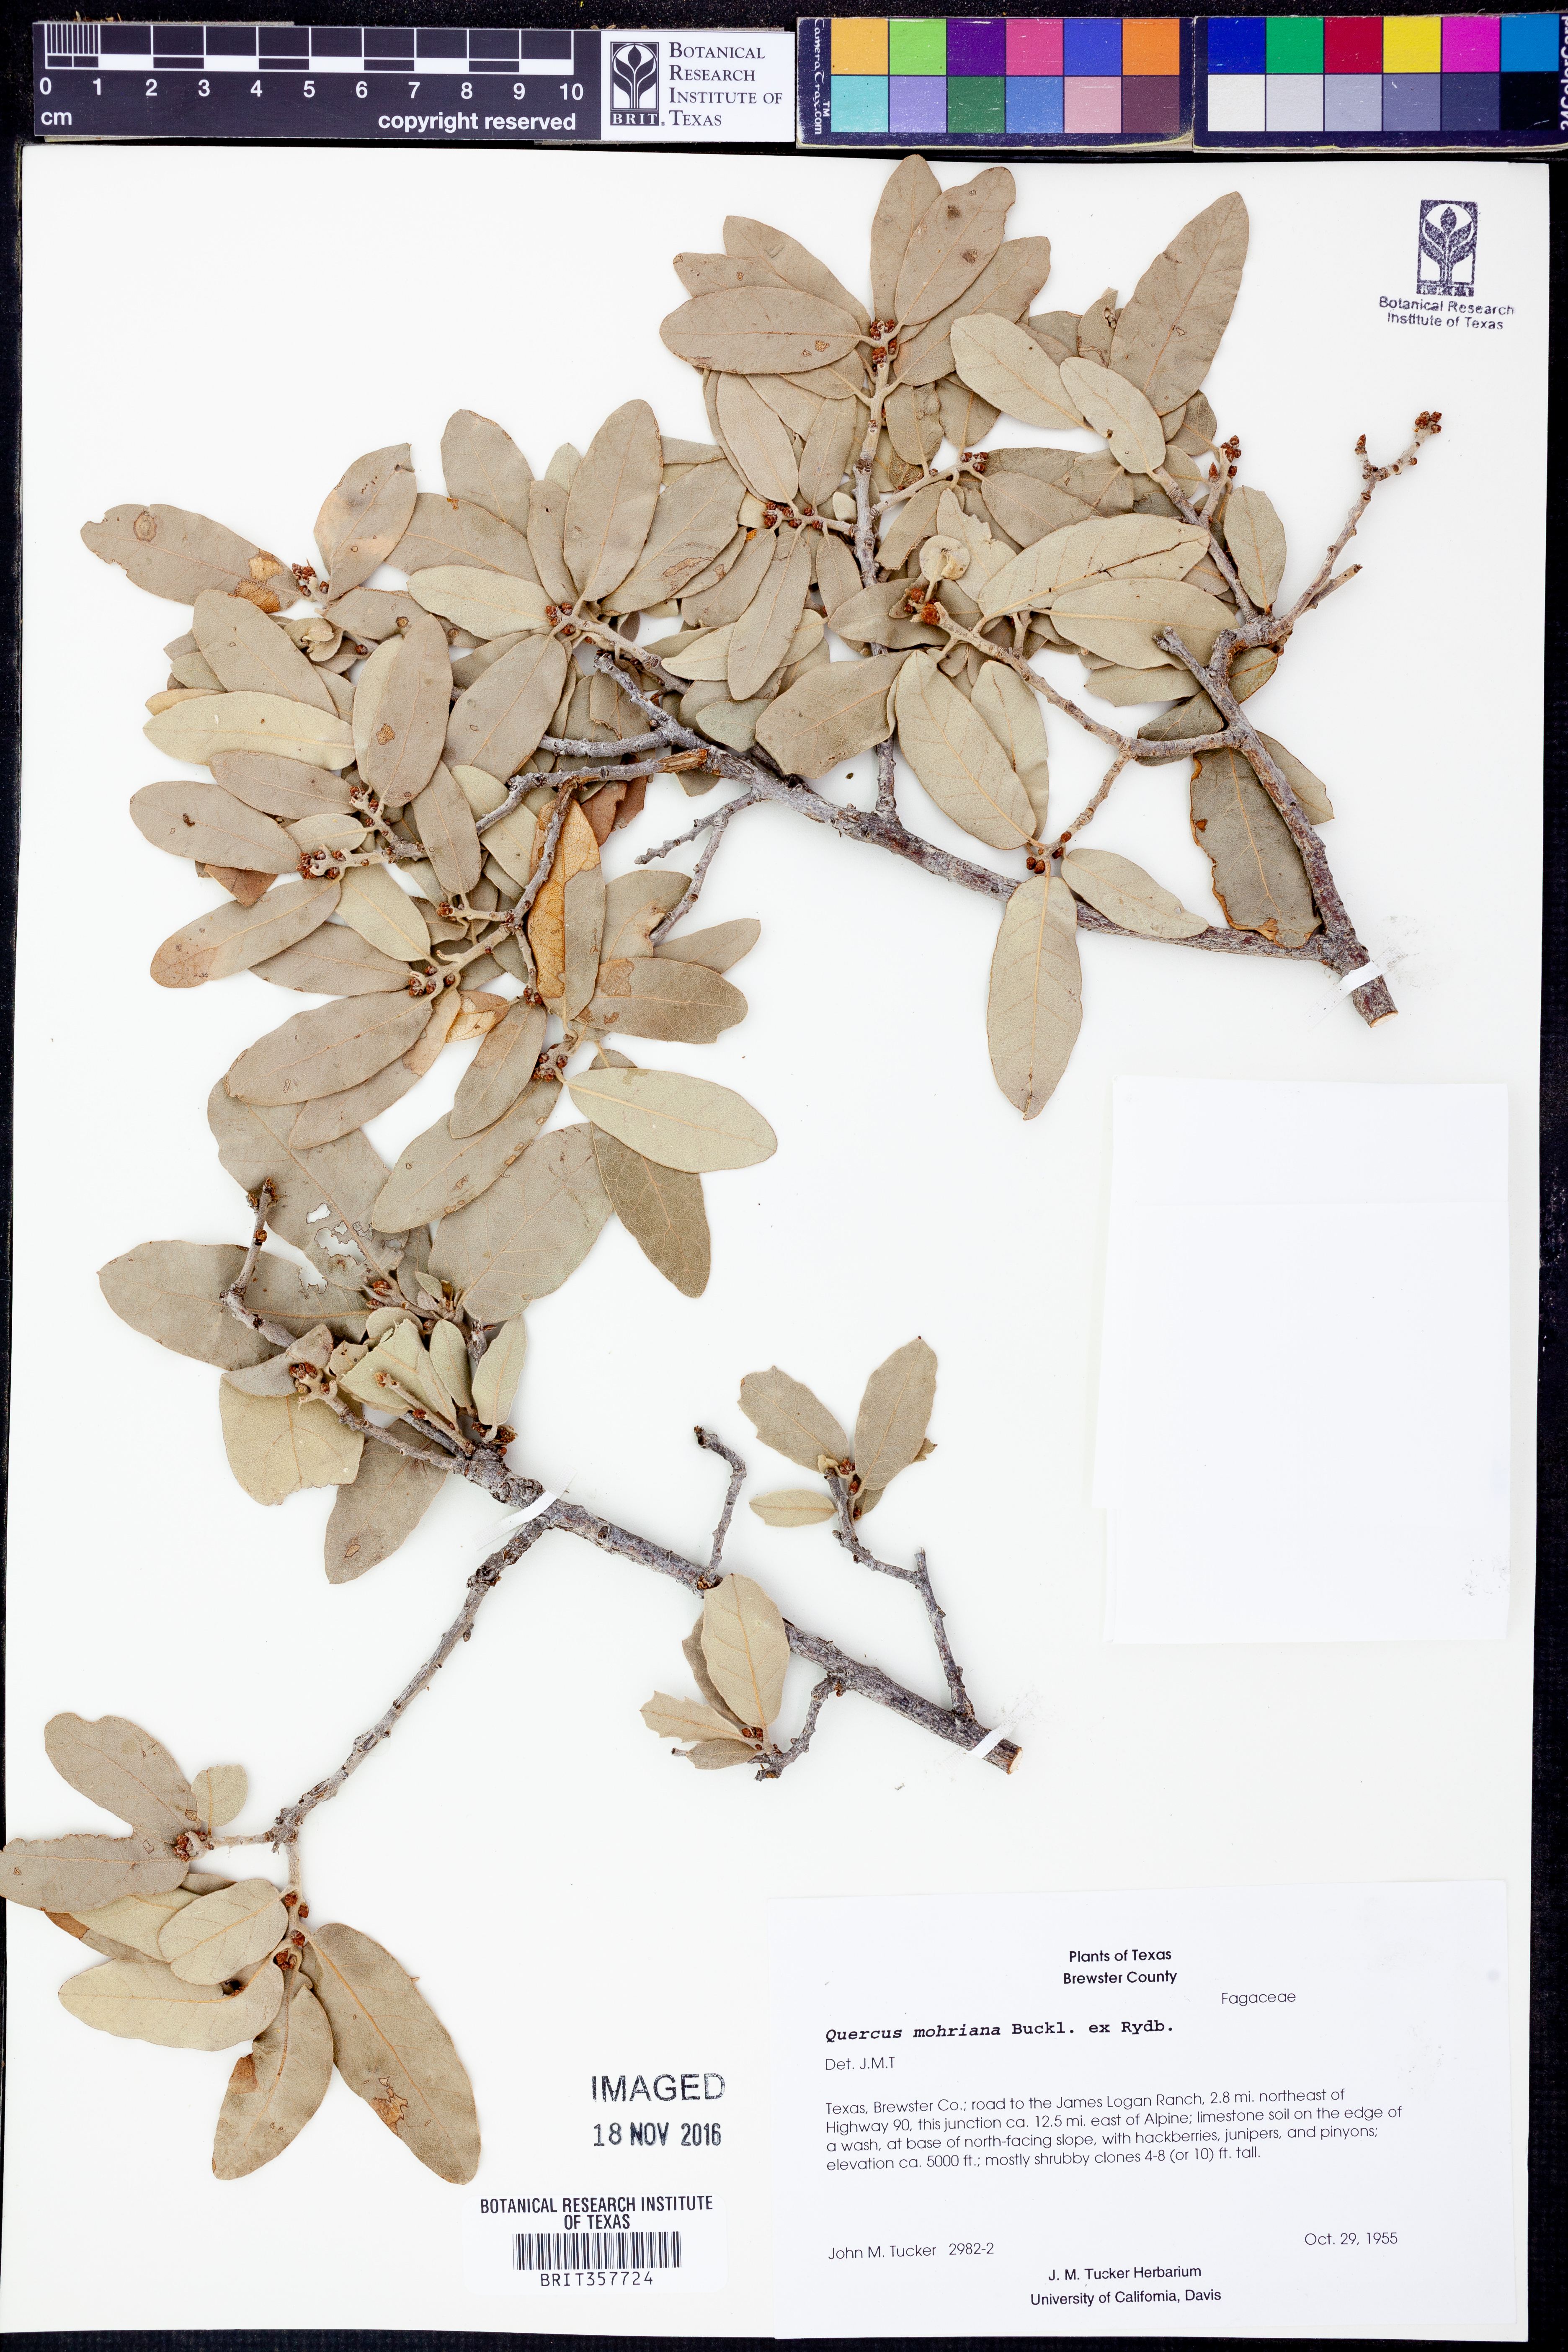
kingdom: Plantae
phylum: Tracheophyta
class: Magnoliopsida
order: Fagales
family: Fagaceae
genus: Quercus
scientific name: Quercus mohriana
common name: Mohr oak
